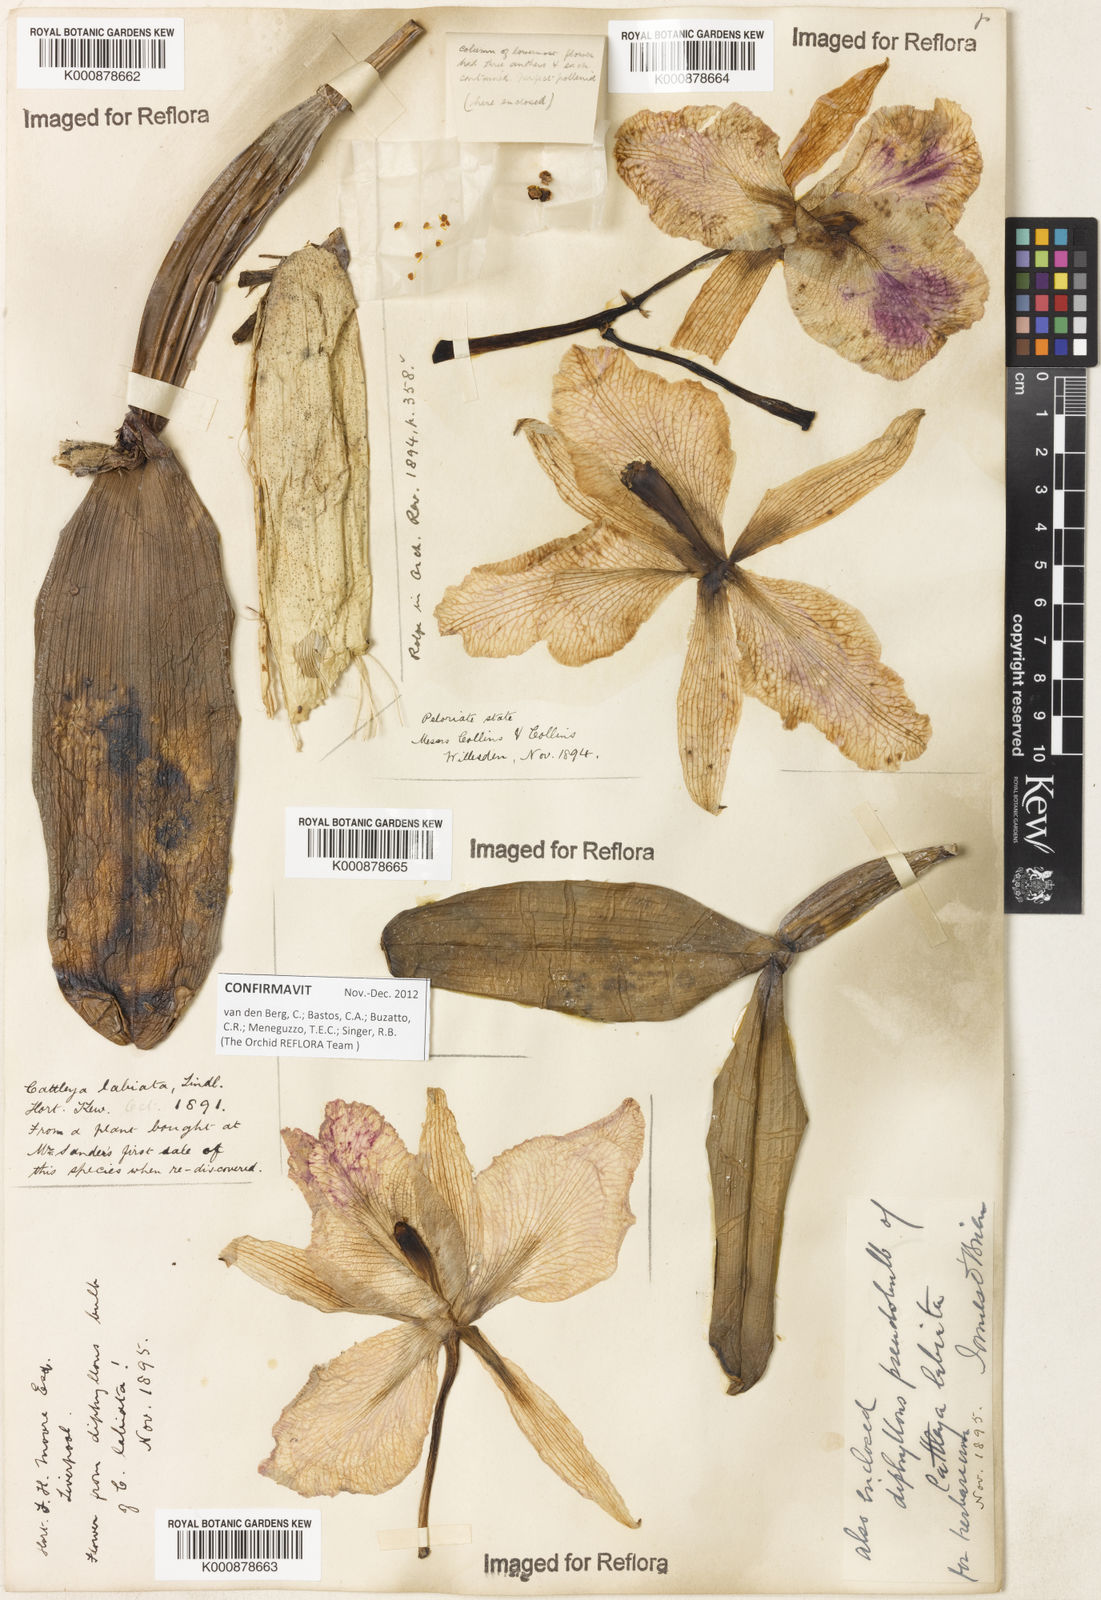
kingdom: Plantae
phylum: Tracheophyta
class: Liliopsida
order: Asparagales
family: Orchidaceae
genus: Cattleya
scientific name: Cattleya labiata
